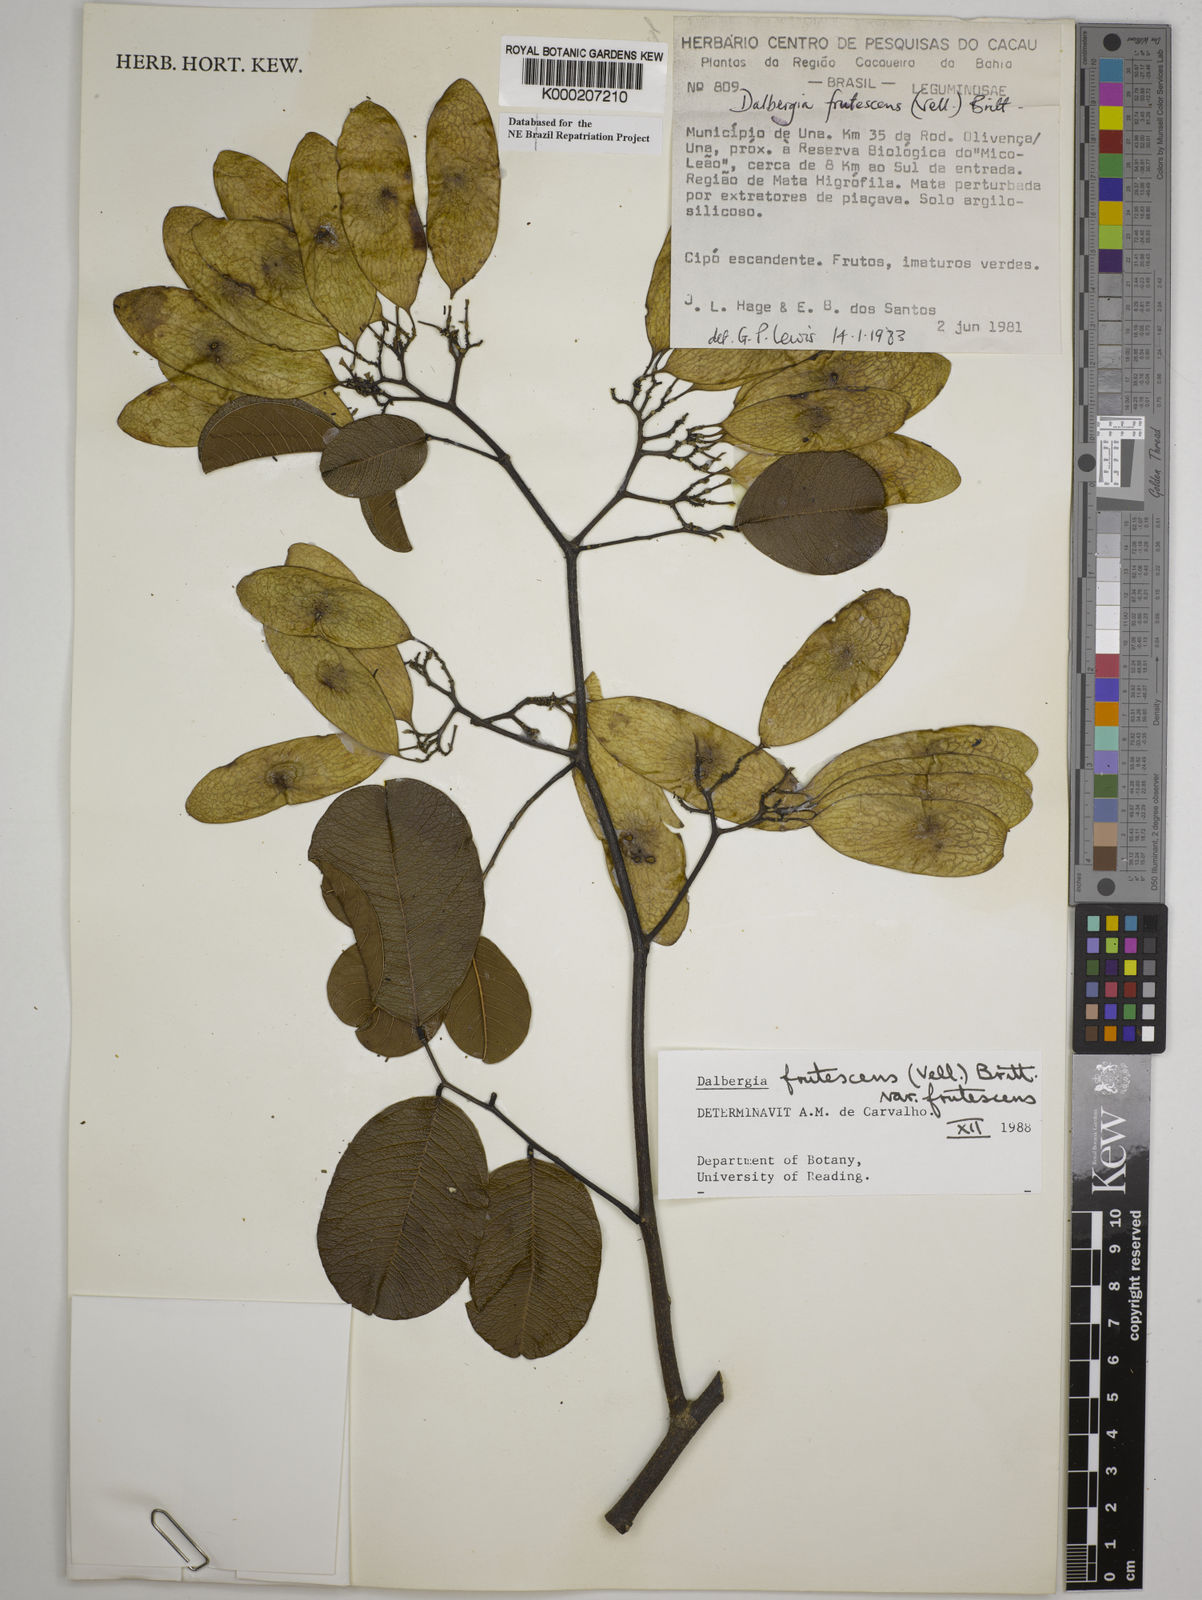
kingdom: Plantae
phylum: Tracheophyta
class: Magnoliopsida
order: Fabales
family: Fabaceae
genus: Dalbergia
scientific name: Dalbergia frutescens
